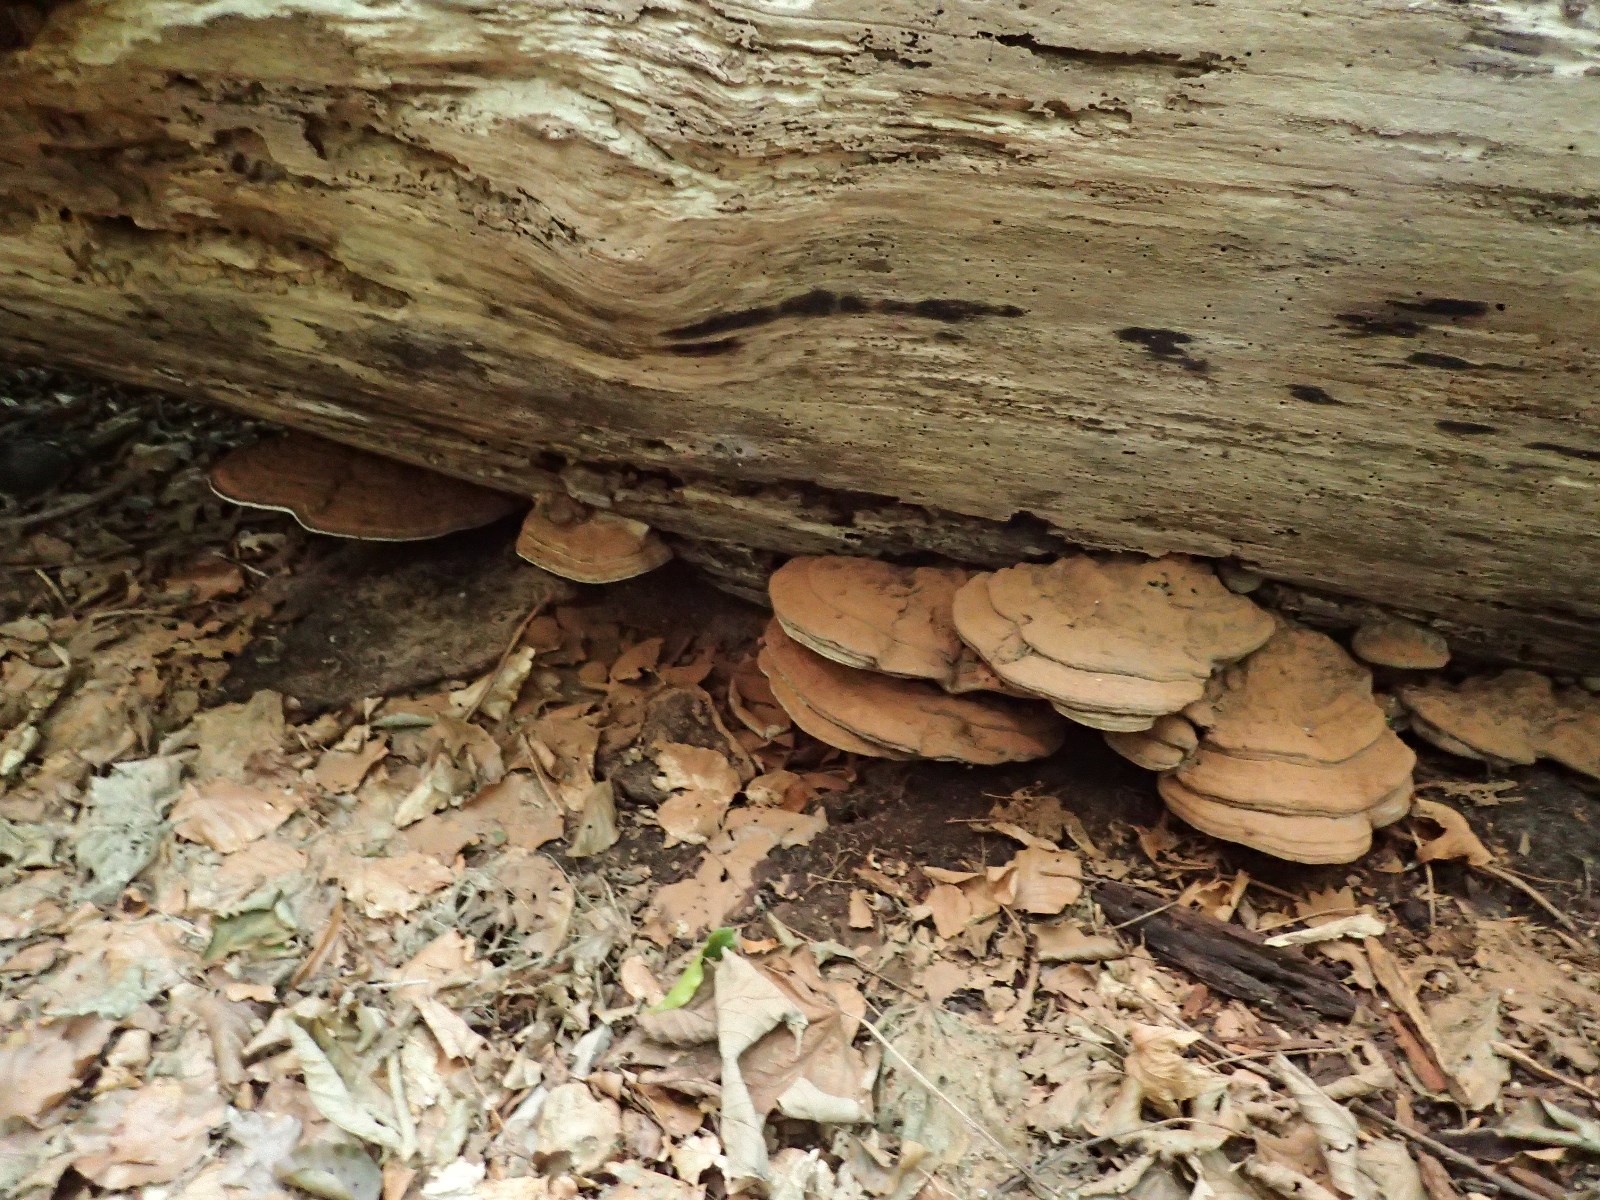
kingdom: Fungi
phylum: Basidiomycota
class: Agaricomycetes
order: Polyporales
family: Polyporaceae
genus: Ganoderma
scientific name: Ganoderma applanatum
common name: flad lakporesvamp
